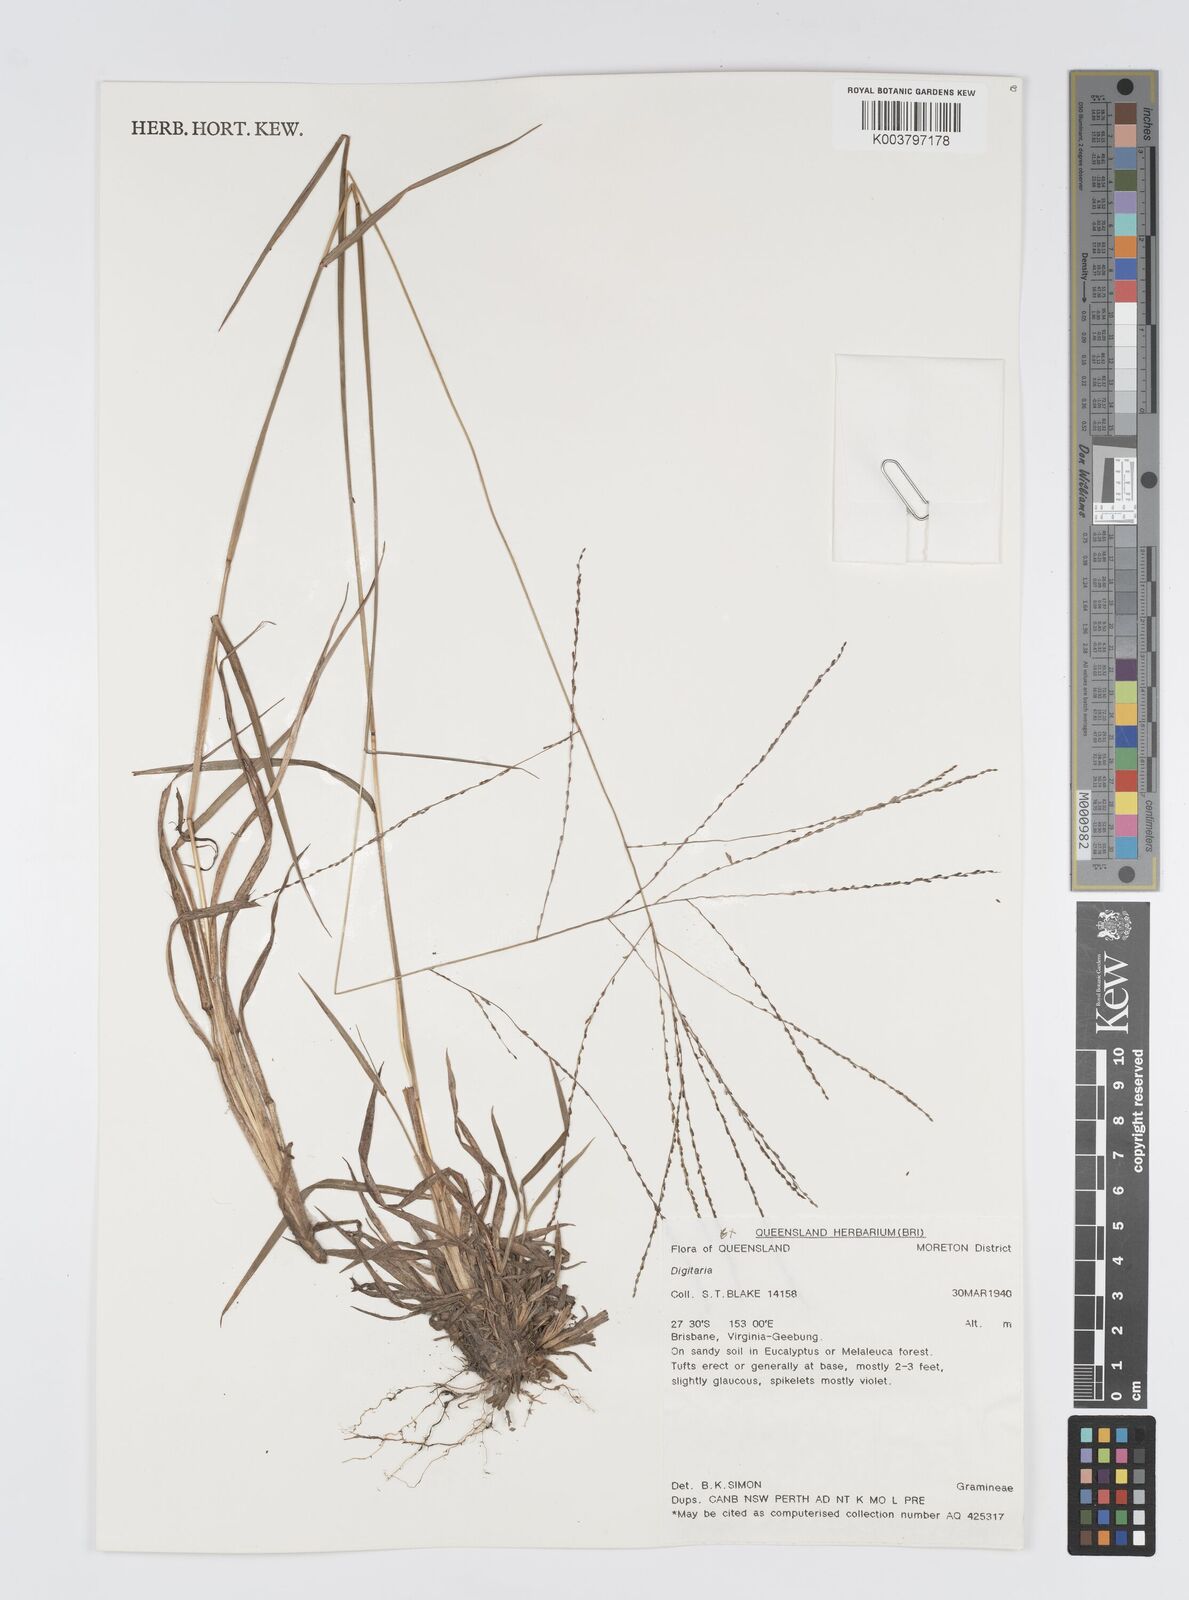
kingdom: Plantae
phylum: Tracheophyta
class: Liliopsida
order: Poales
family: Poaceae
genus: Digitaria
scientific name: Digitaria spec
